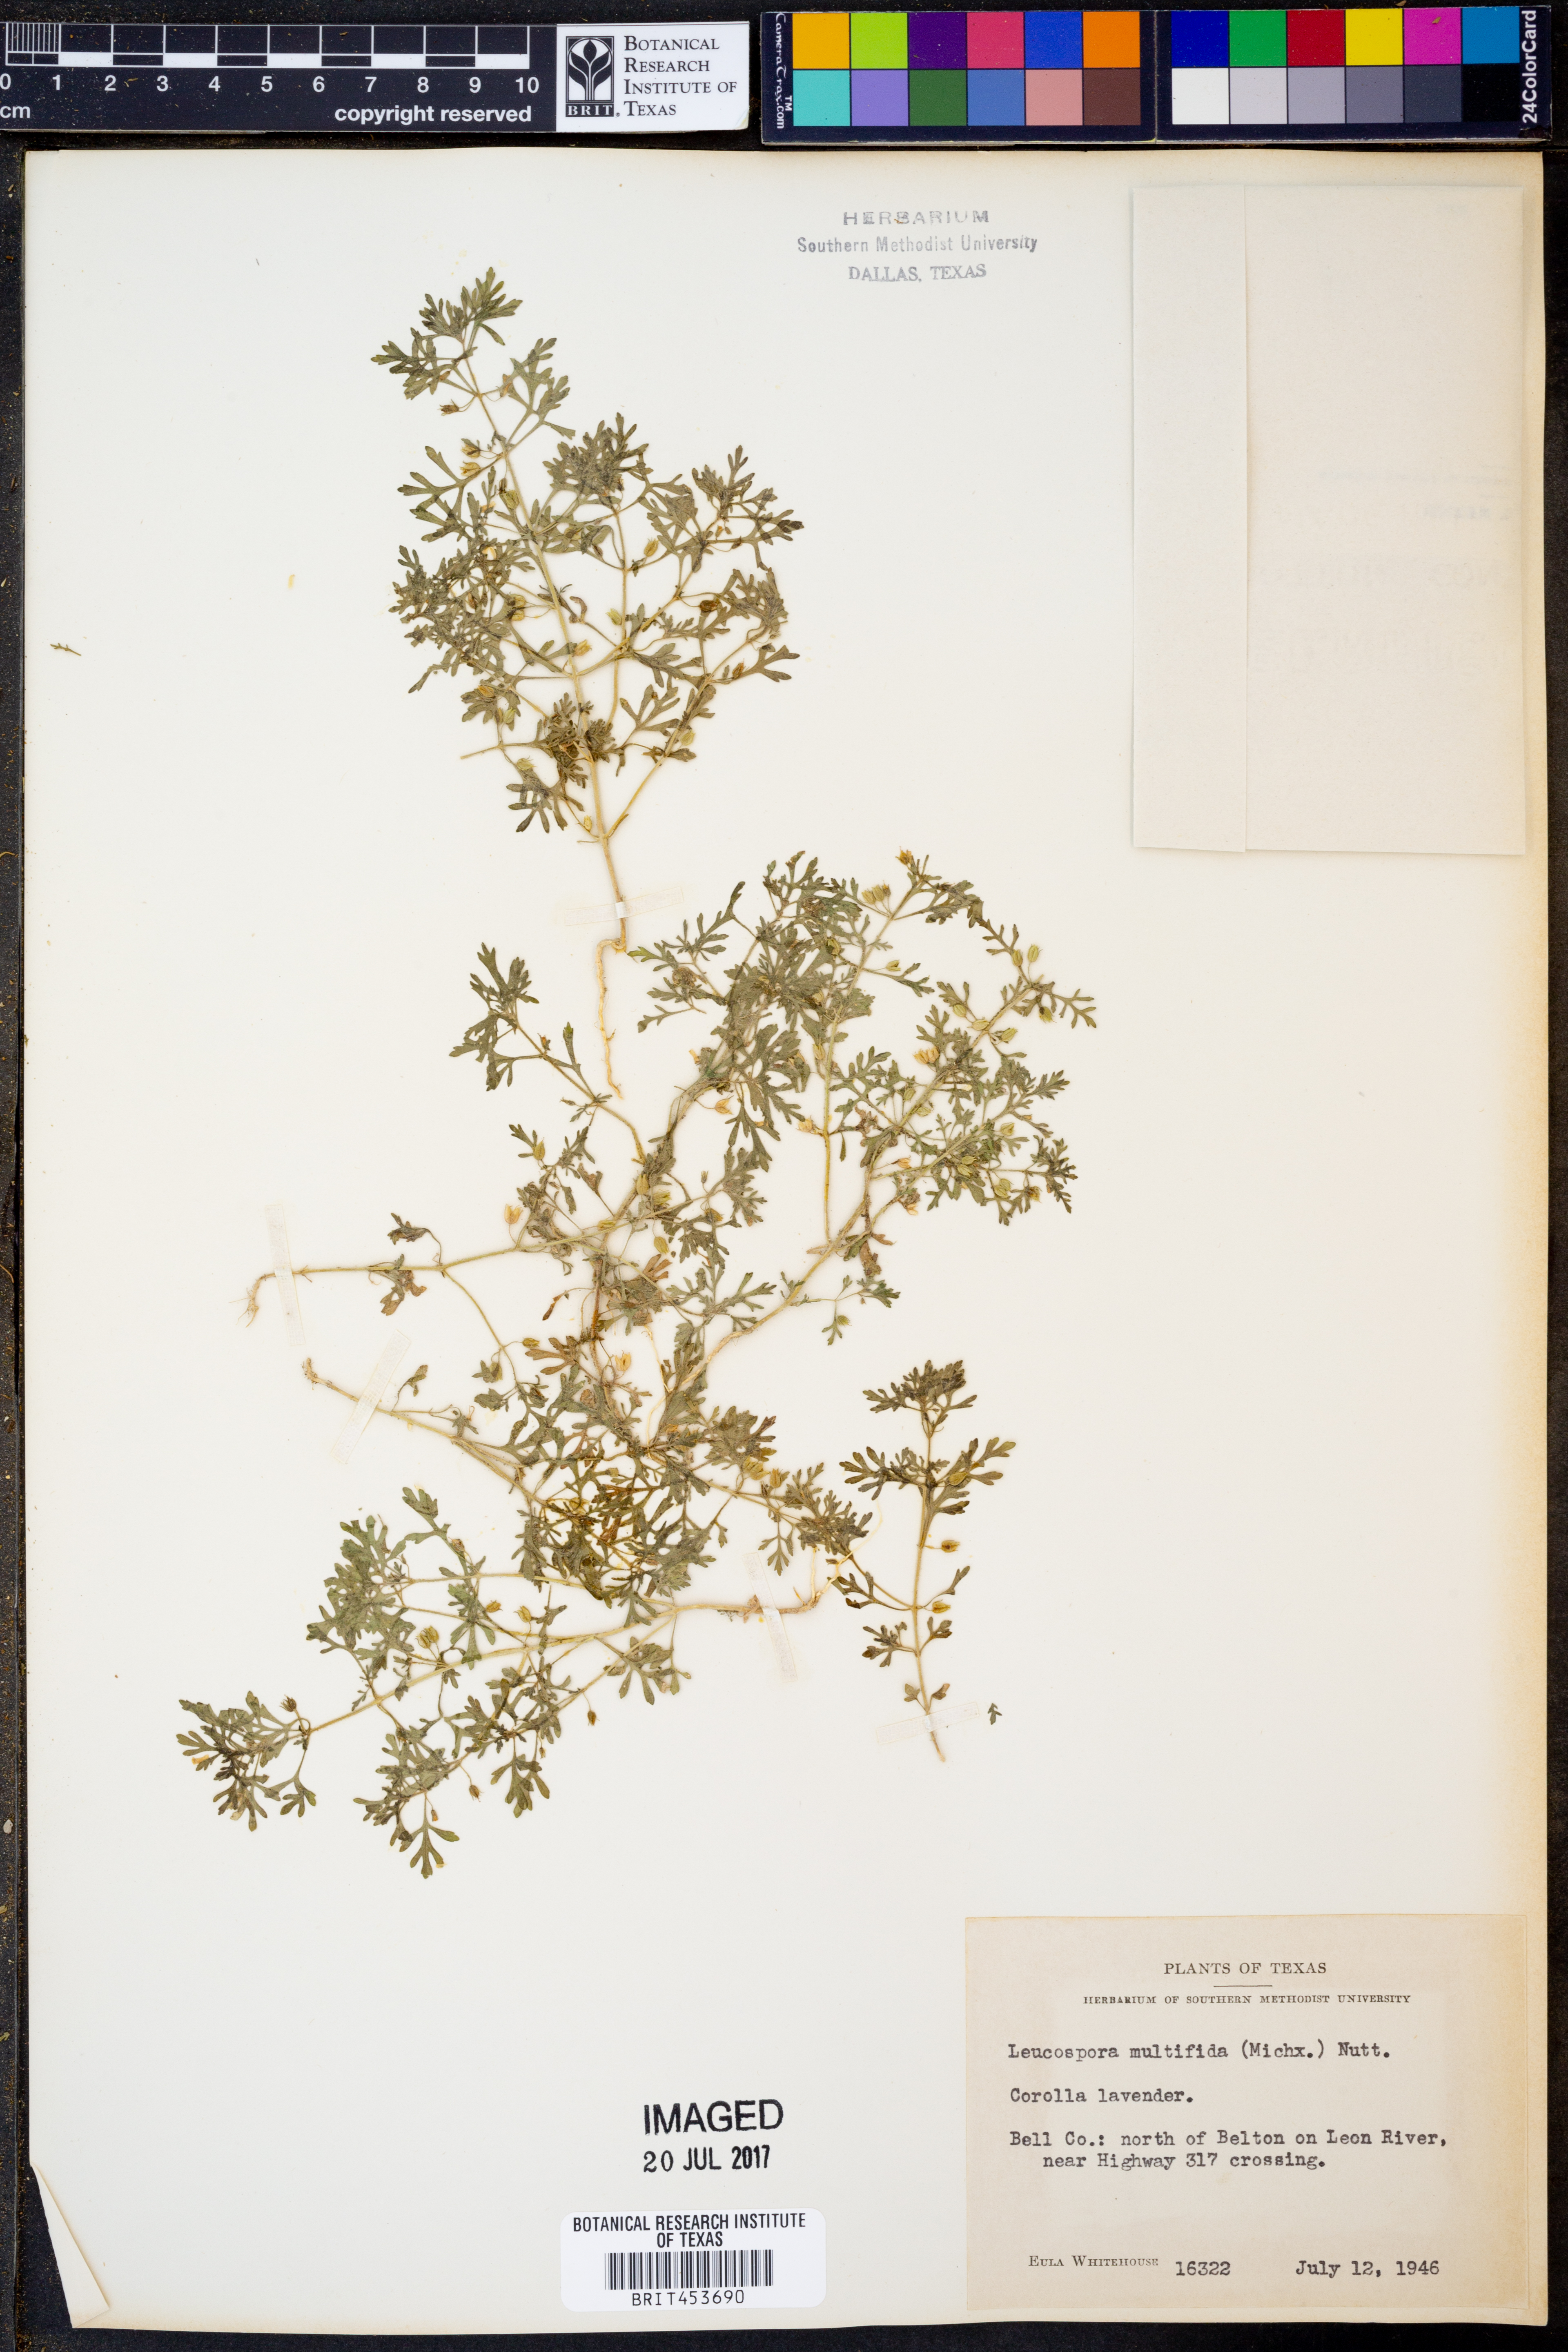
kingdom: Plantae
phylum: Tracheophyta
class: Magnoliopsida
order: Lamiales
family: Plantaginaceae
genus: Leucospora
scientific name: Leucospora multifida
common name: Narrow-leaf paleseed
